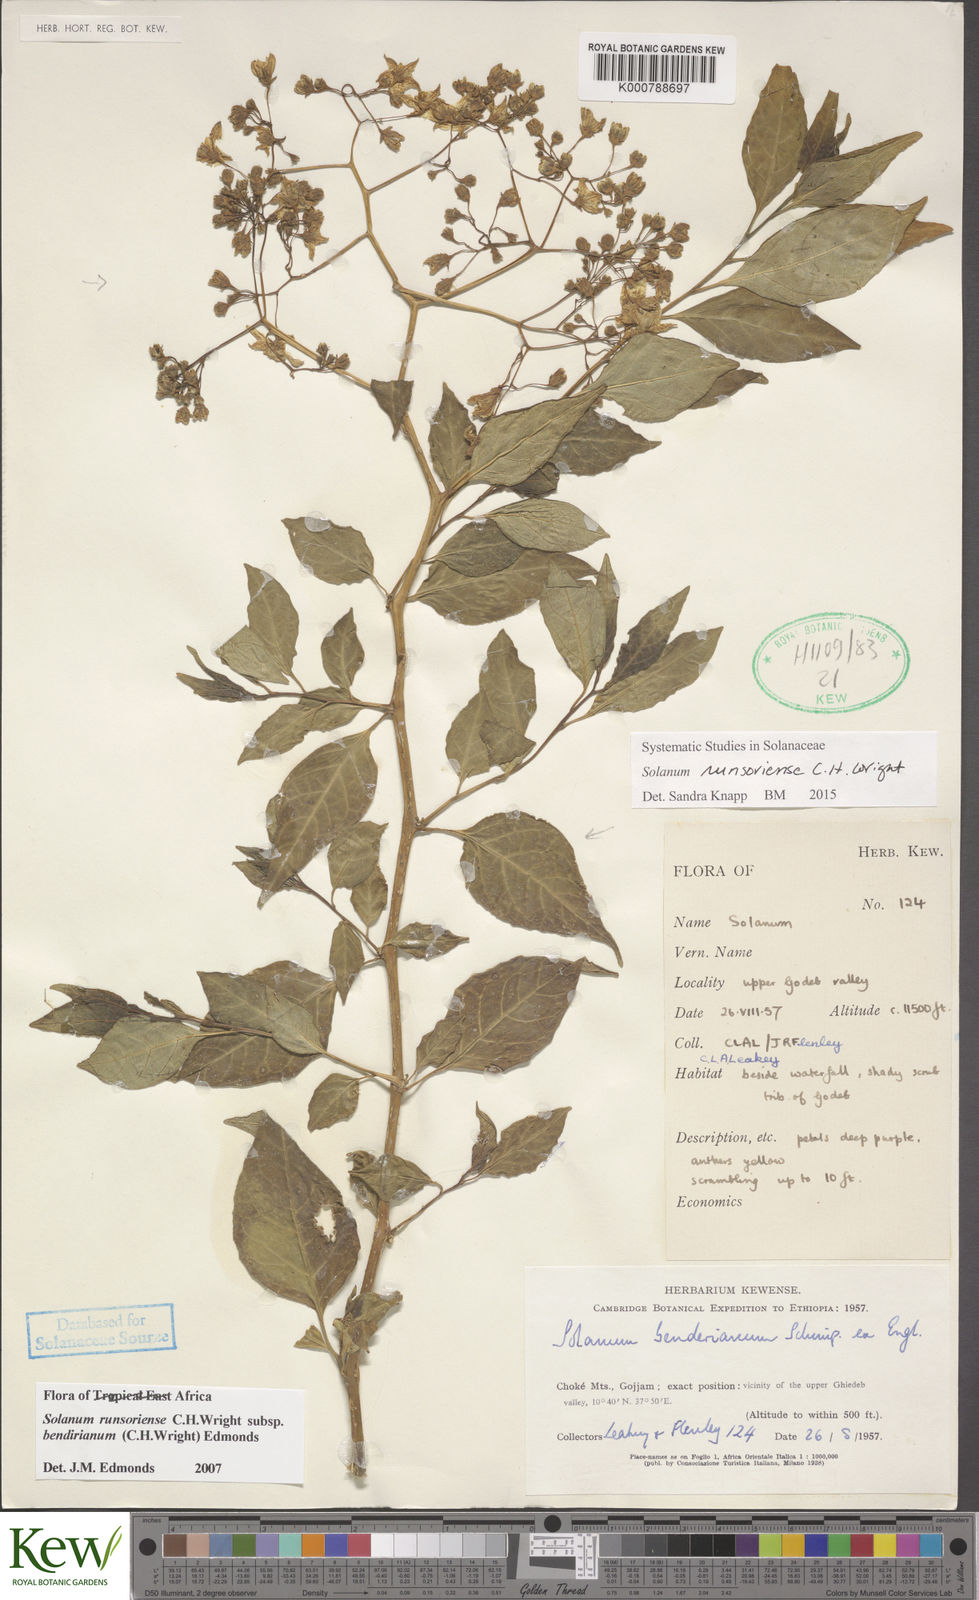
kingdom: Plantae
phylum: Tracheophyta
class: Magnoliopsida
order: Solanales
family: Solanaceae
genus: Solanum
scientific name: Solanum runsoriense
